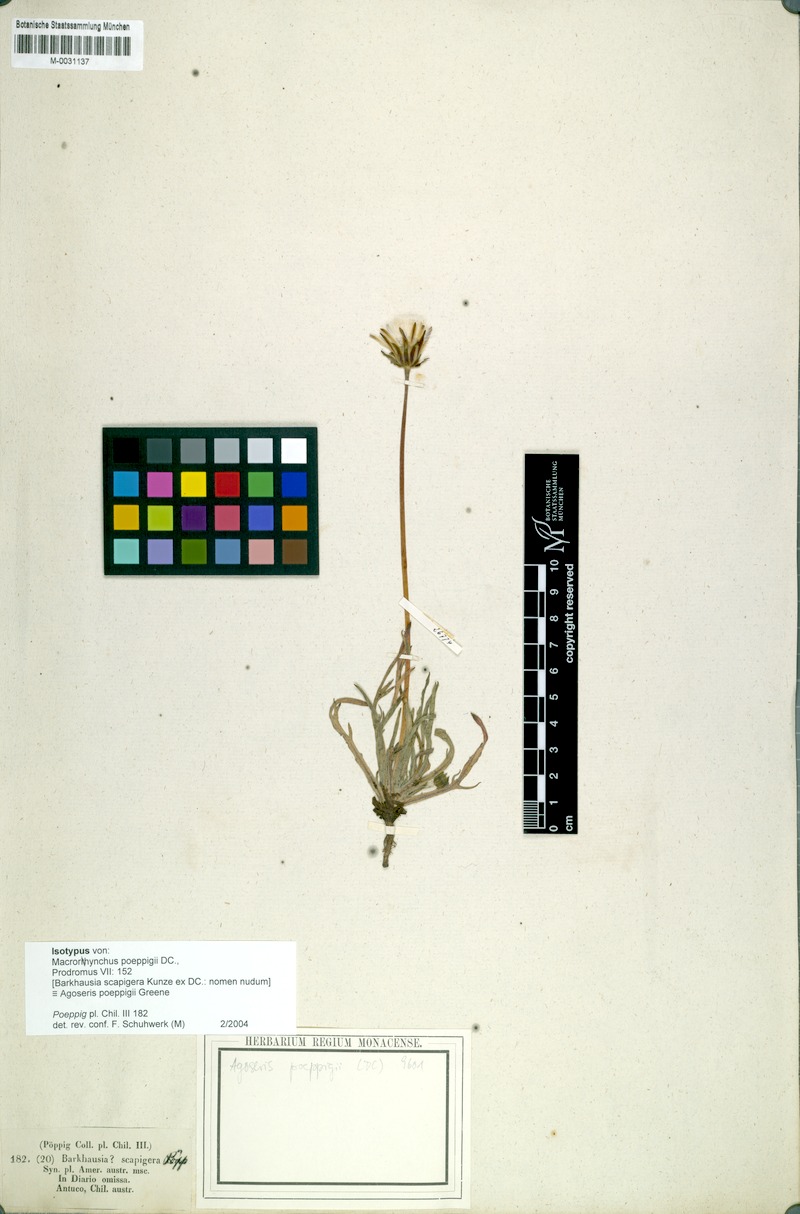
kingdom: Plantae
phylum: Tracheophyta
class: Magnoliopsida
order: Asterales
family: Asteraceae
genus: Agoseris
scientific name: Agoseris coronopifolia
